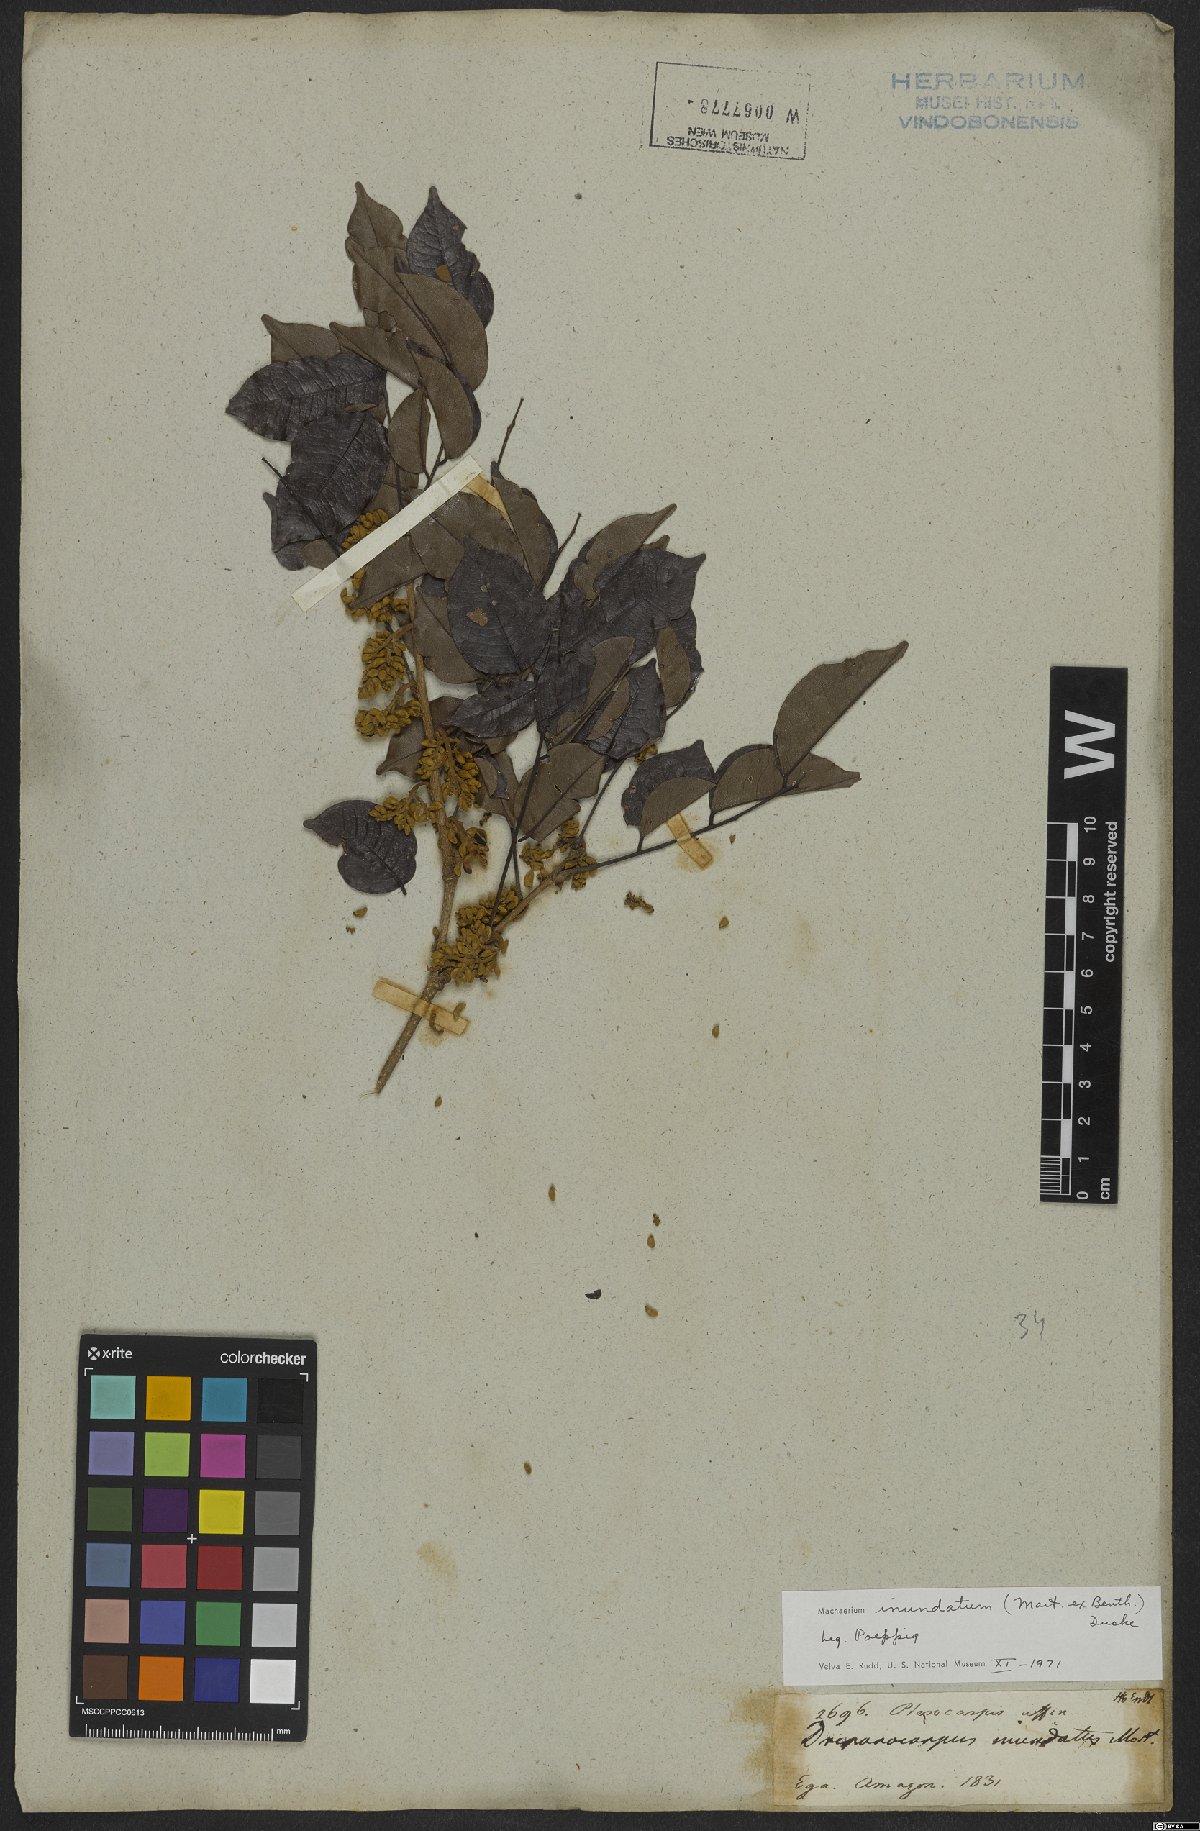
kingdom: Plantae
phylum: Tracheophyta
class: Magnoliopsida
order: Fabales
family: Fabaceae
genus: Machaerium
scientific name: Machaerium inundatum
